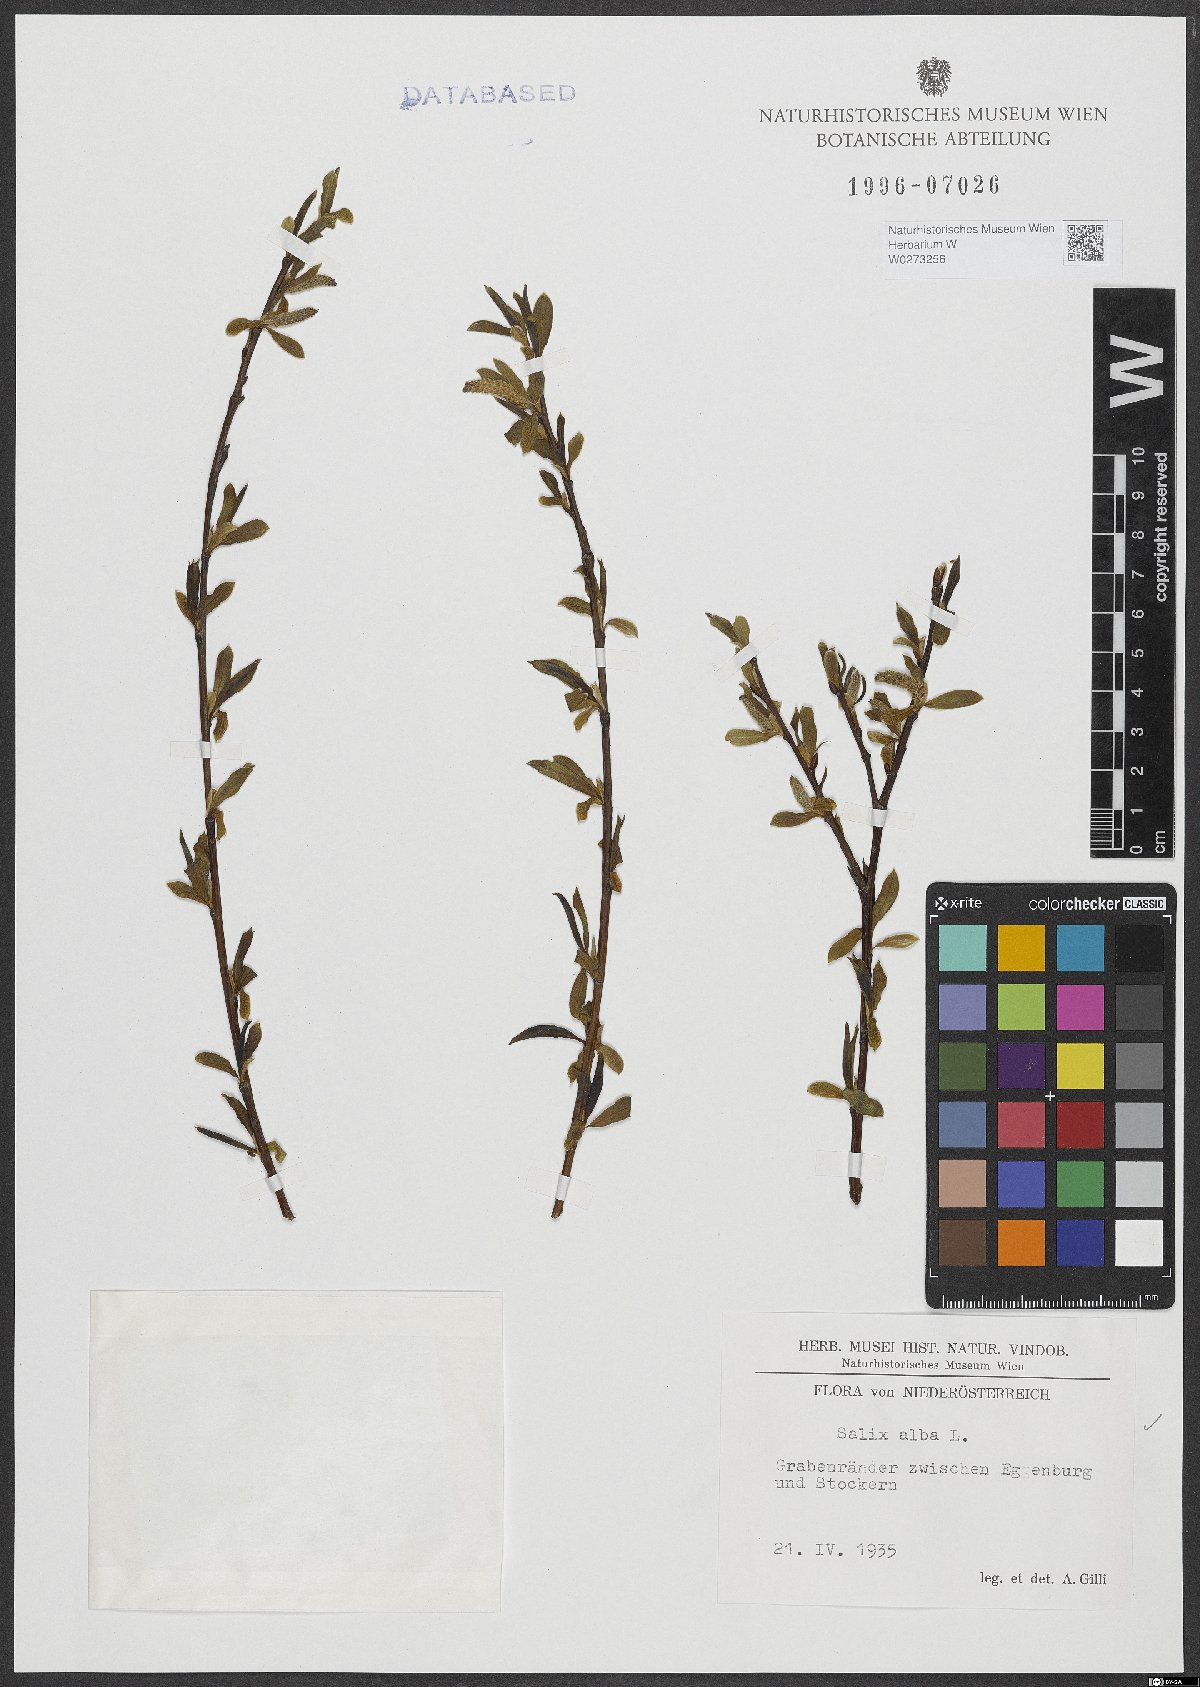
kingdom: Plantae
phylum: Tracheophyta
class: Magnoliopsida
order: Malpighiales
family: Salicaceae
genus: Salix
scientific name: Salix alba
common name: White willow
